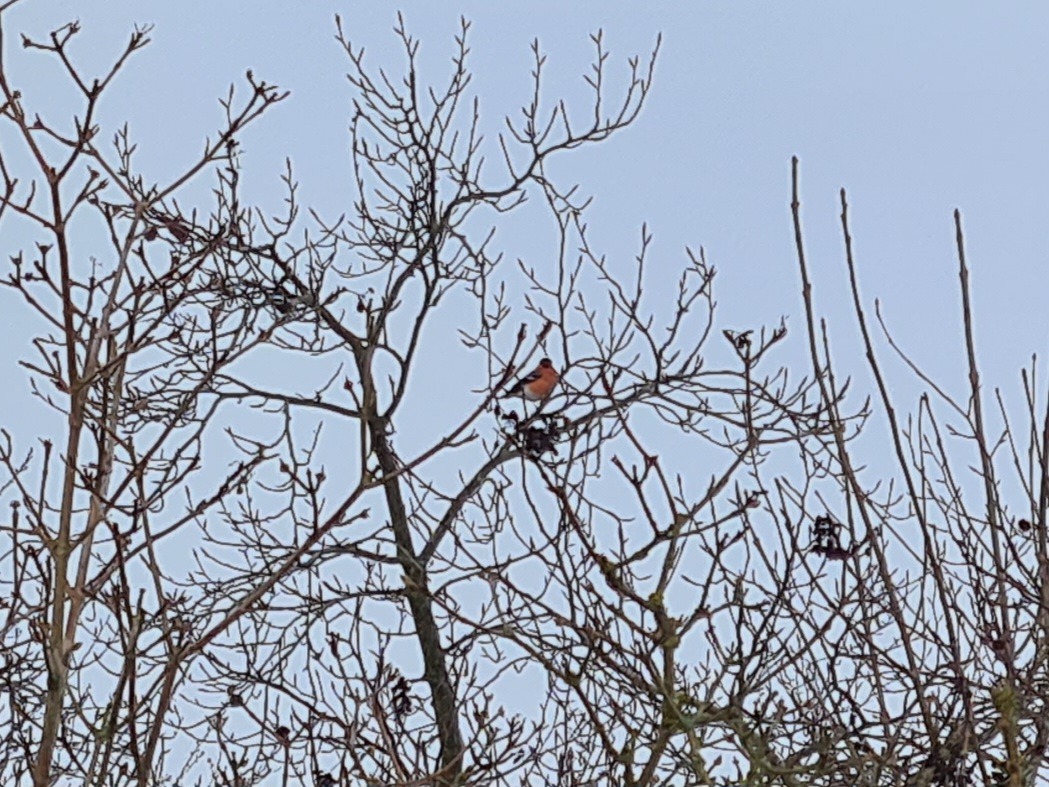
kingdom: Animalia
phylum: Chordata
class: Aves
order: Passeriformes
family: Fringillidae
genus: Pyrrhula
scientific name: Pyrrhula pyrrhula
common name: Dompap
